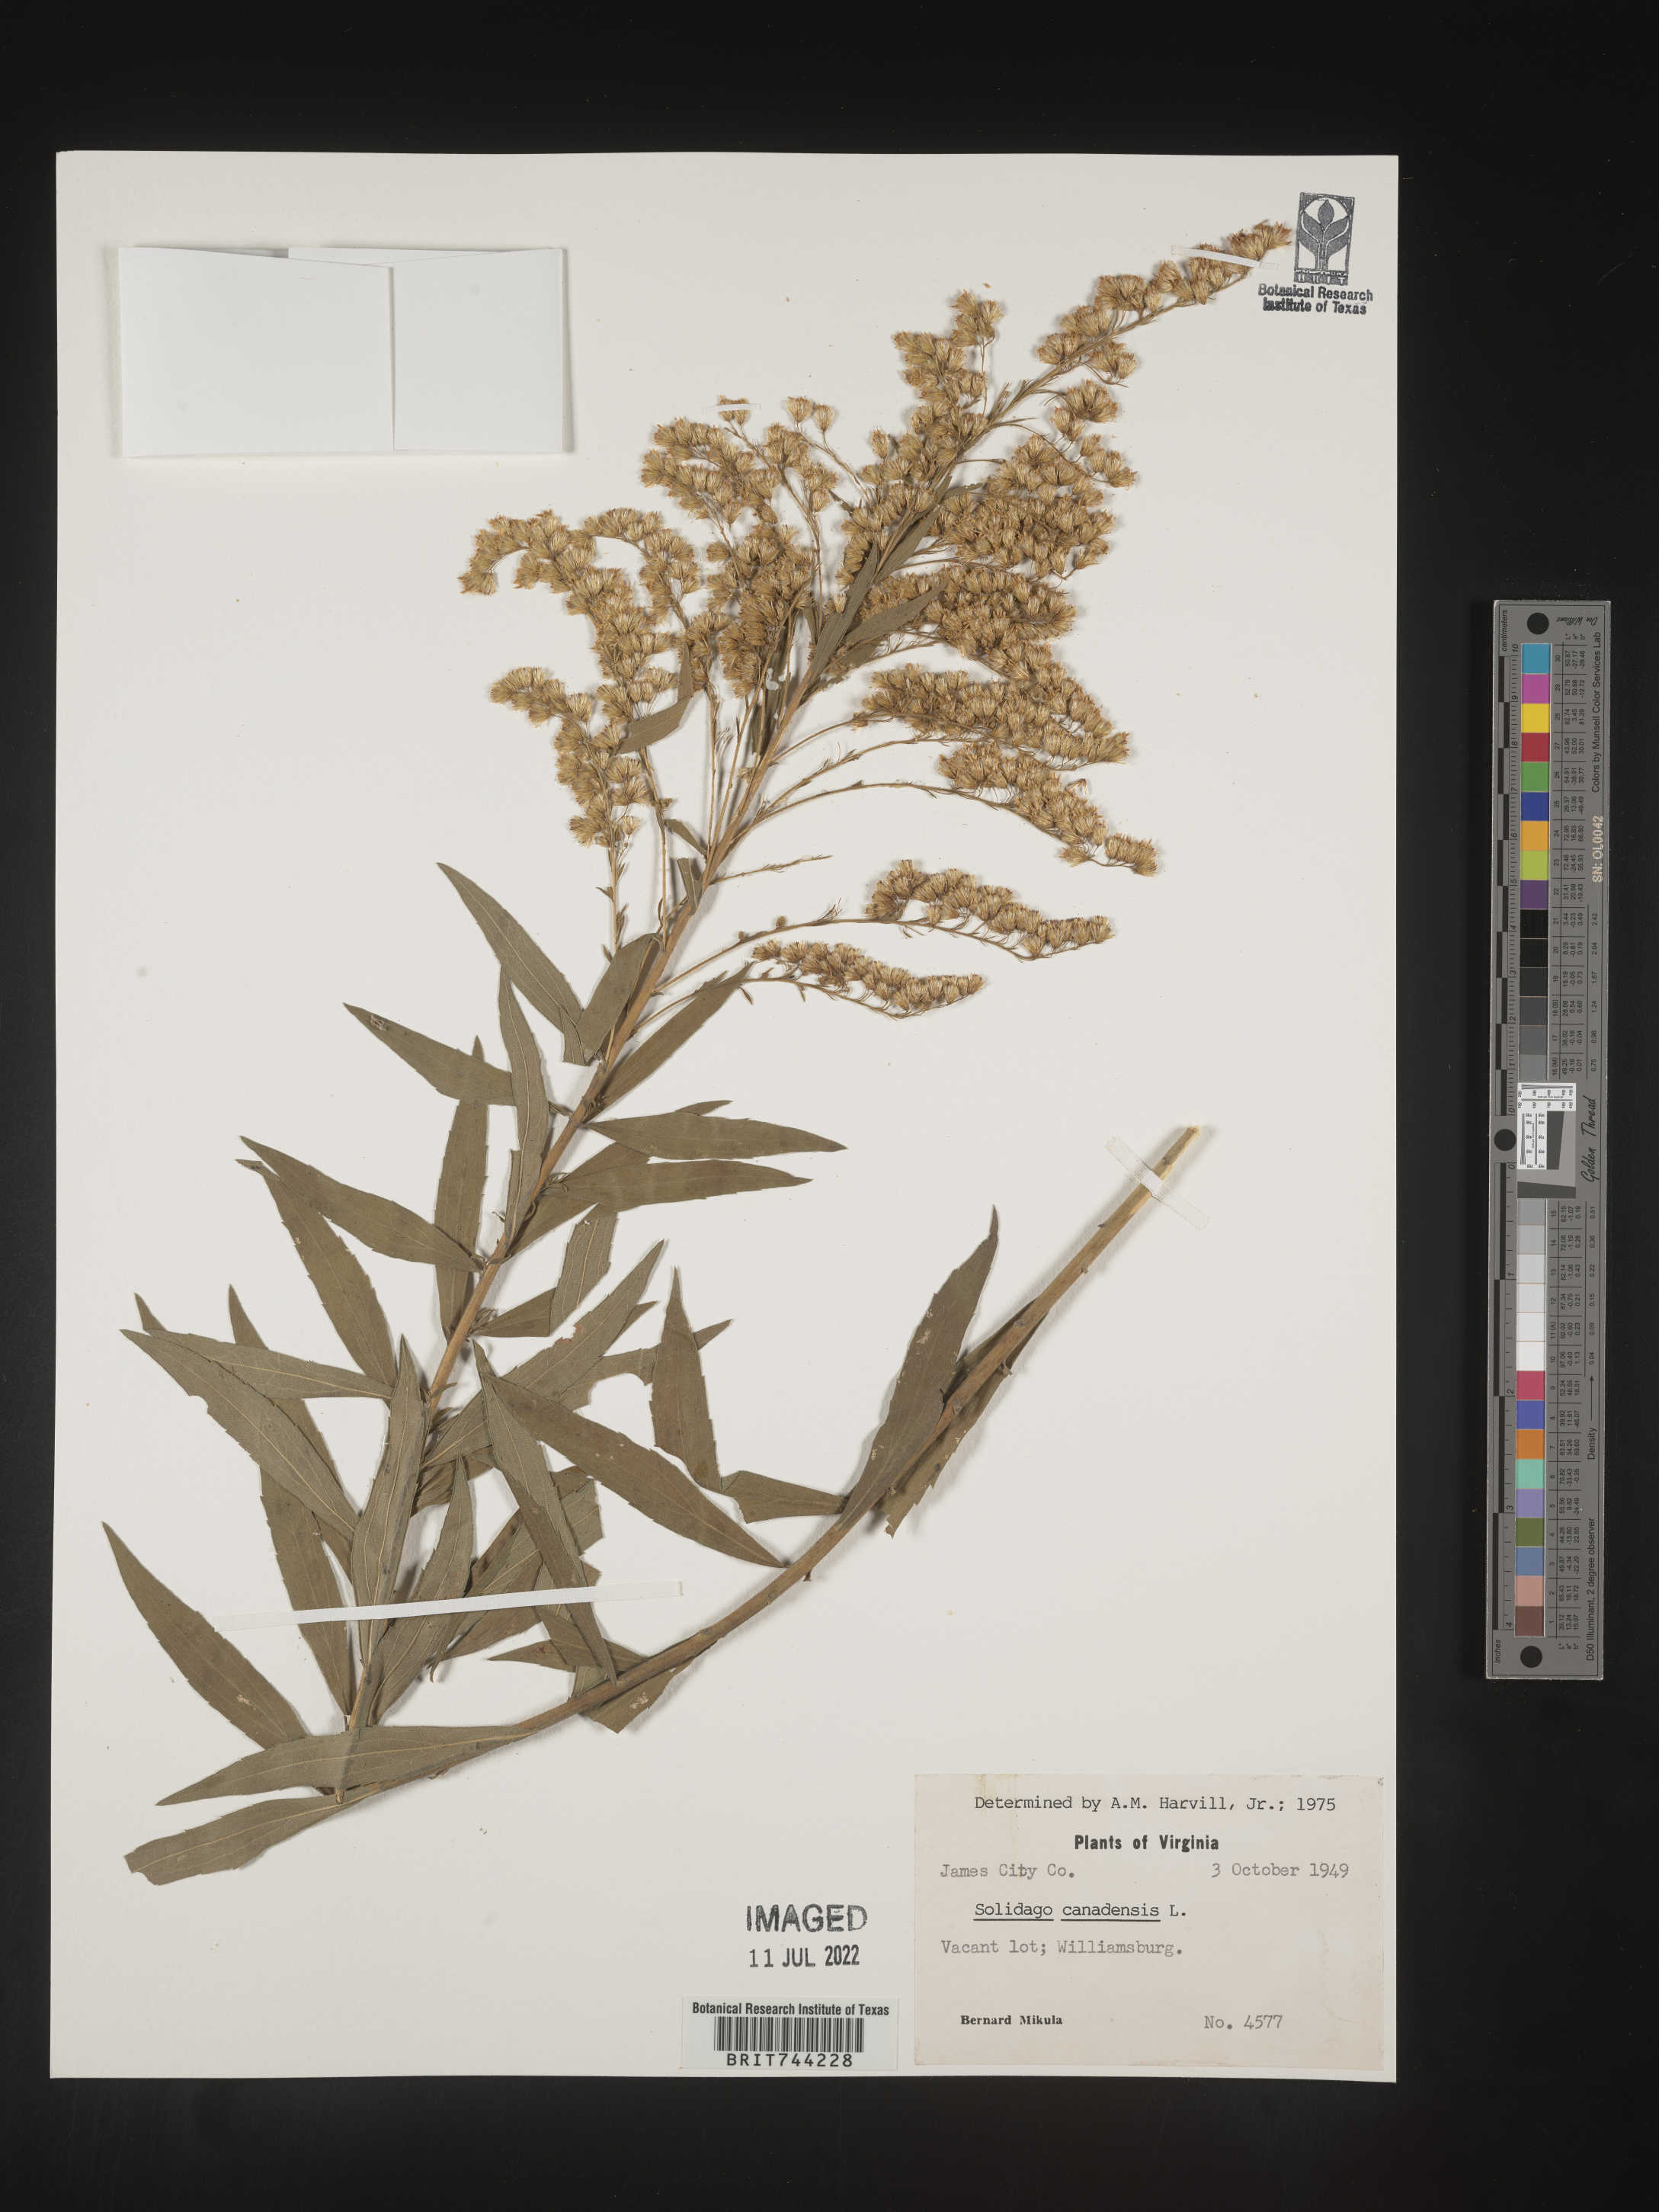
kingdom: Plantae
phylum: Tracheophyta
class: Magnoliopsida
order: Asterales
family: Asteraceae
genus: Solidago
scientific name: Solidago altissima
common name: Late goldenrod
